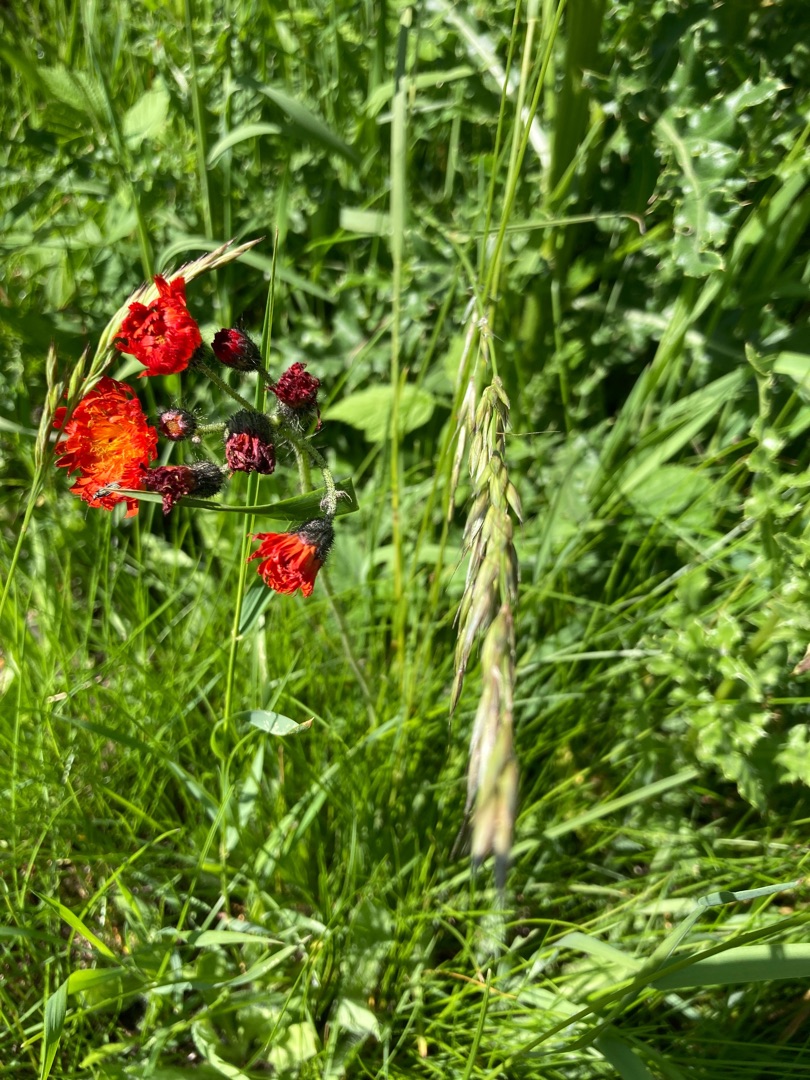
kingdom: Plantae
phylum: Tracheophyta
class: Magnoliopsida
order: Asterales
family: Asteraceae
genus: Pilosella
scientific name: Pilosella aurantiaca
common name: Pomerans-høgeurt
